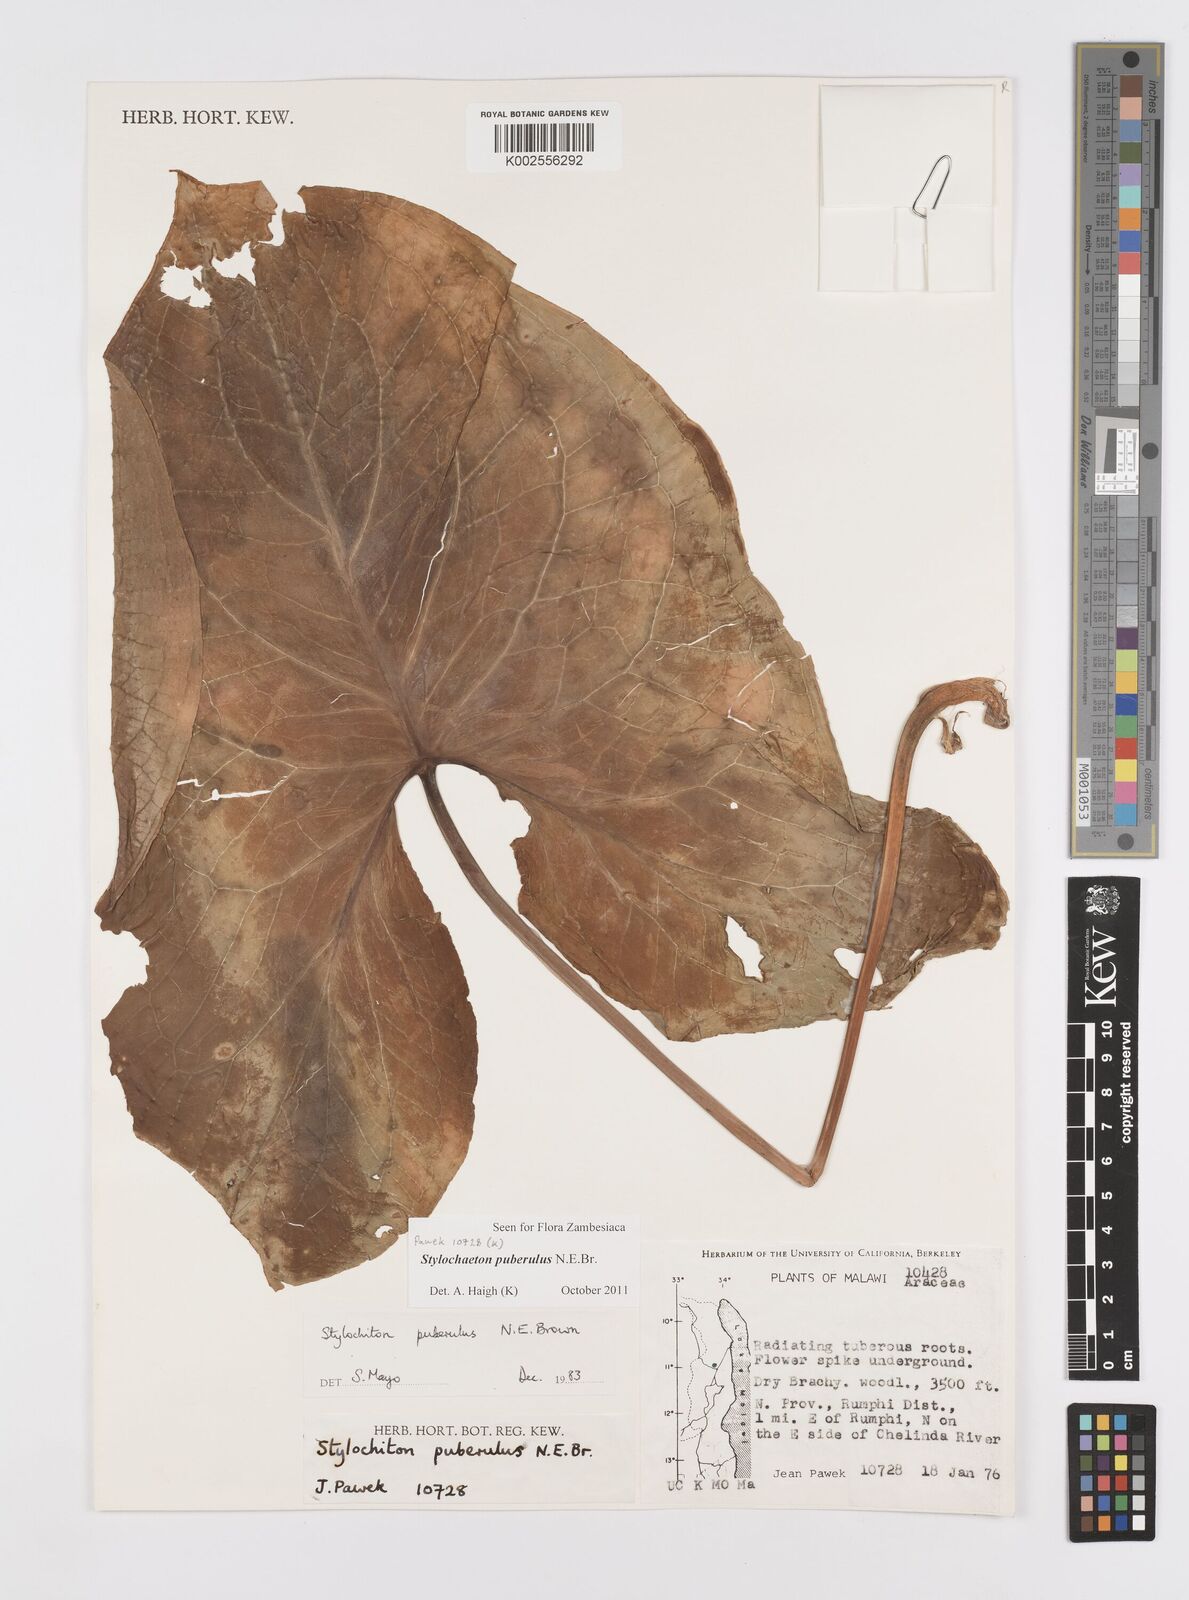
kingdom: Plantae
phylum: Tracheophyta
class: Liliopsida
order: Alismatales
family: Araceae
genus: Stylochaeton
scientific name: Stylochaeton puberulum
